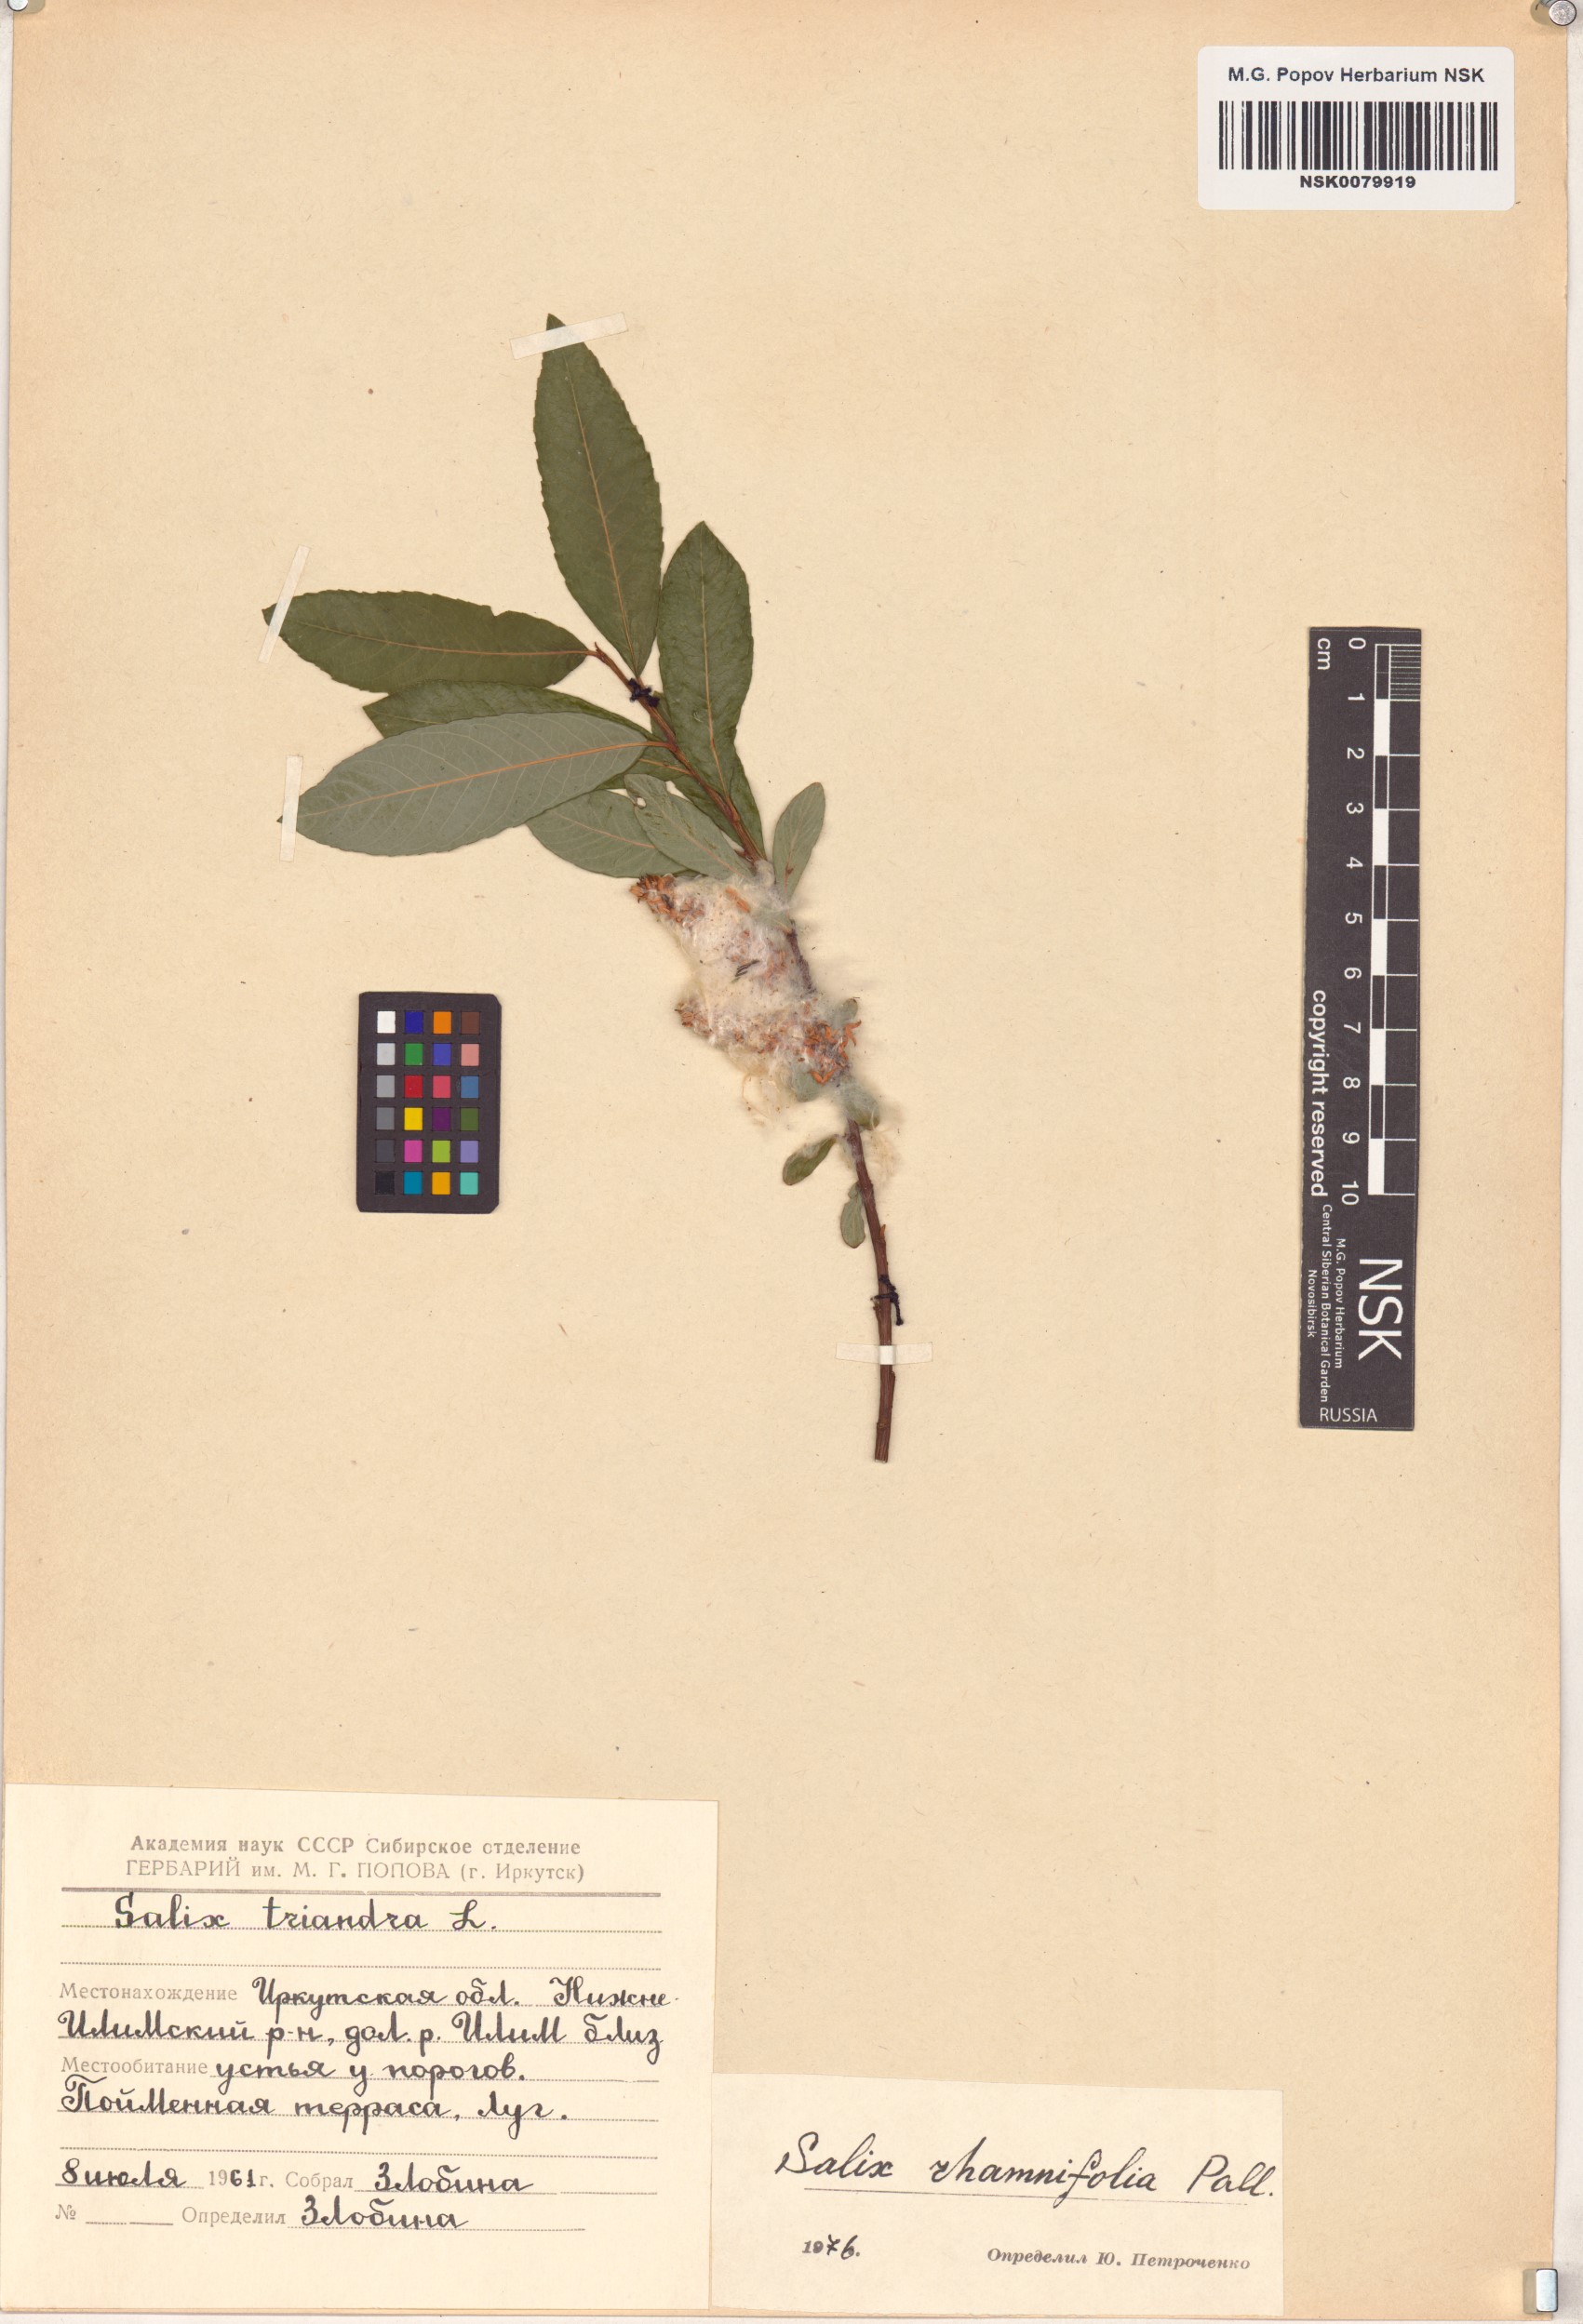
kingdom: Plantae
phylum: Tracheophyta
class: Magnoliopsida
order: Malpighiales
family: Salicaceae
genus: Salix
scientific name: Salix rhamnifolia
